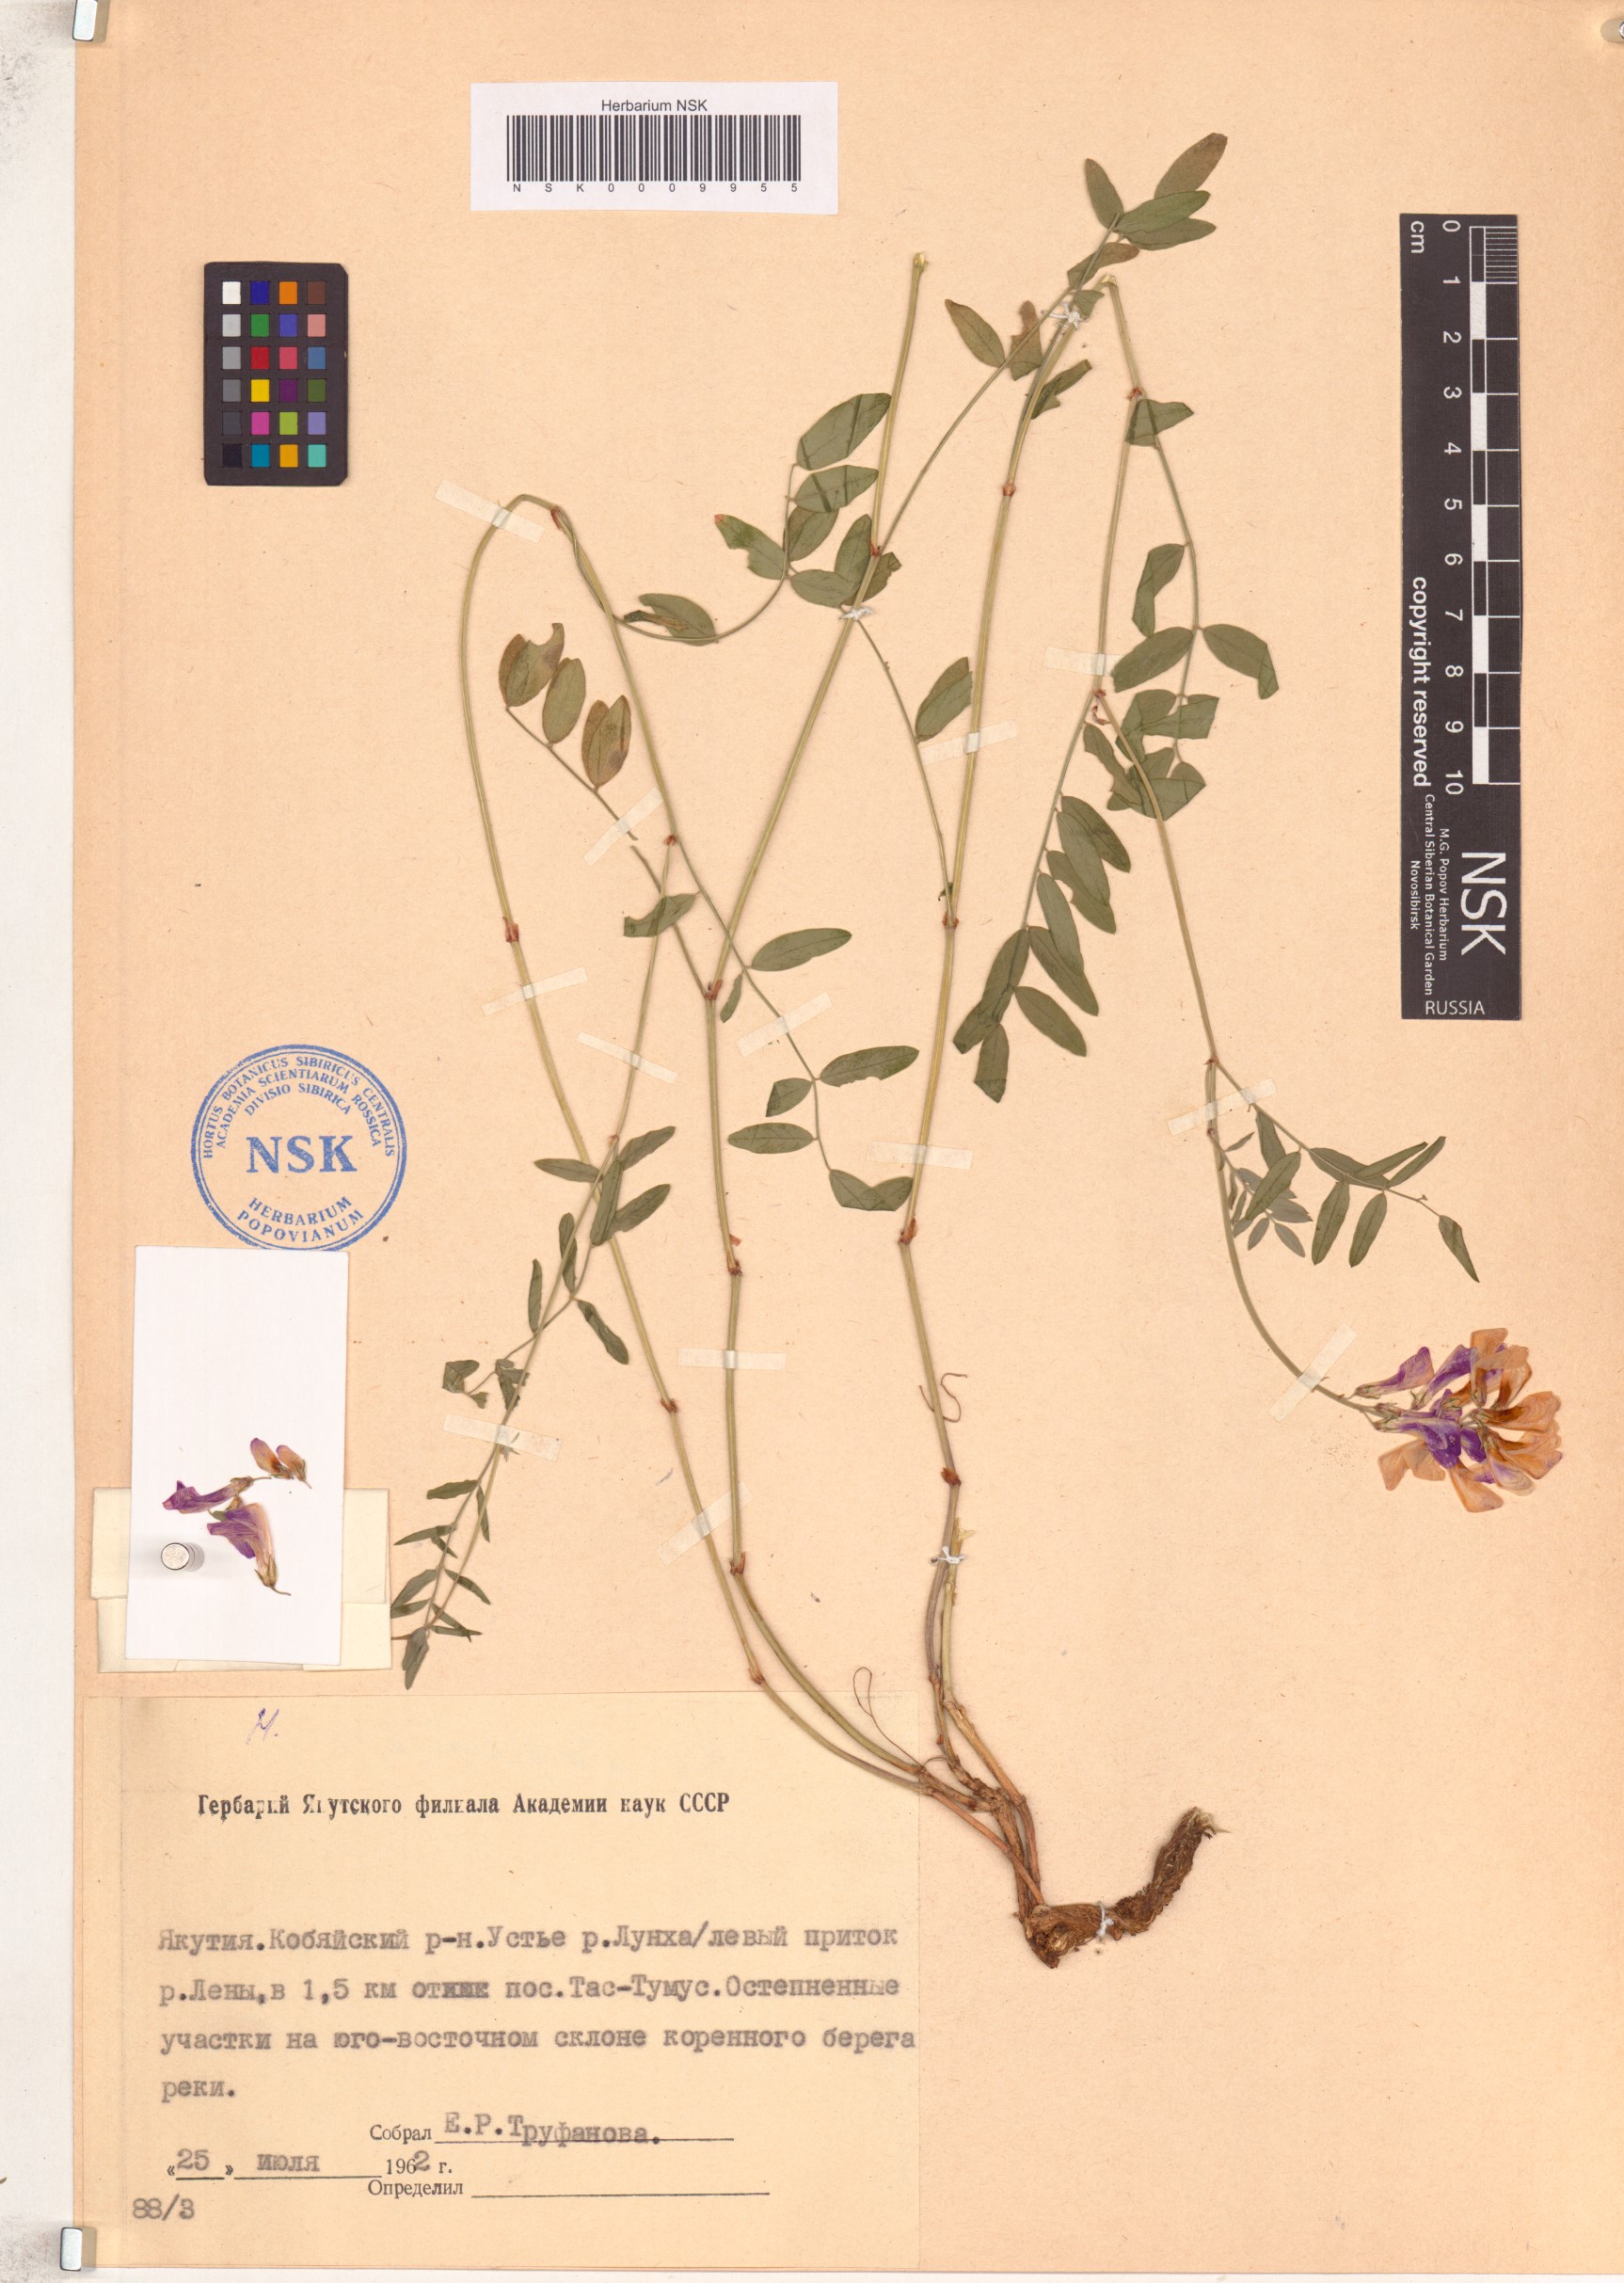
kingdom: Plantae
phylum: Tracheophyta
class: Magnoliopsida
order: Fabales
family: Fabaceae
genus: Hedysarum
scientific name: Hedysarum dasycarpum
